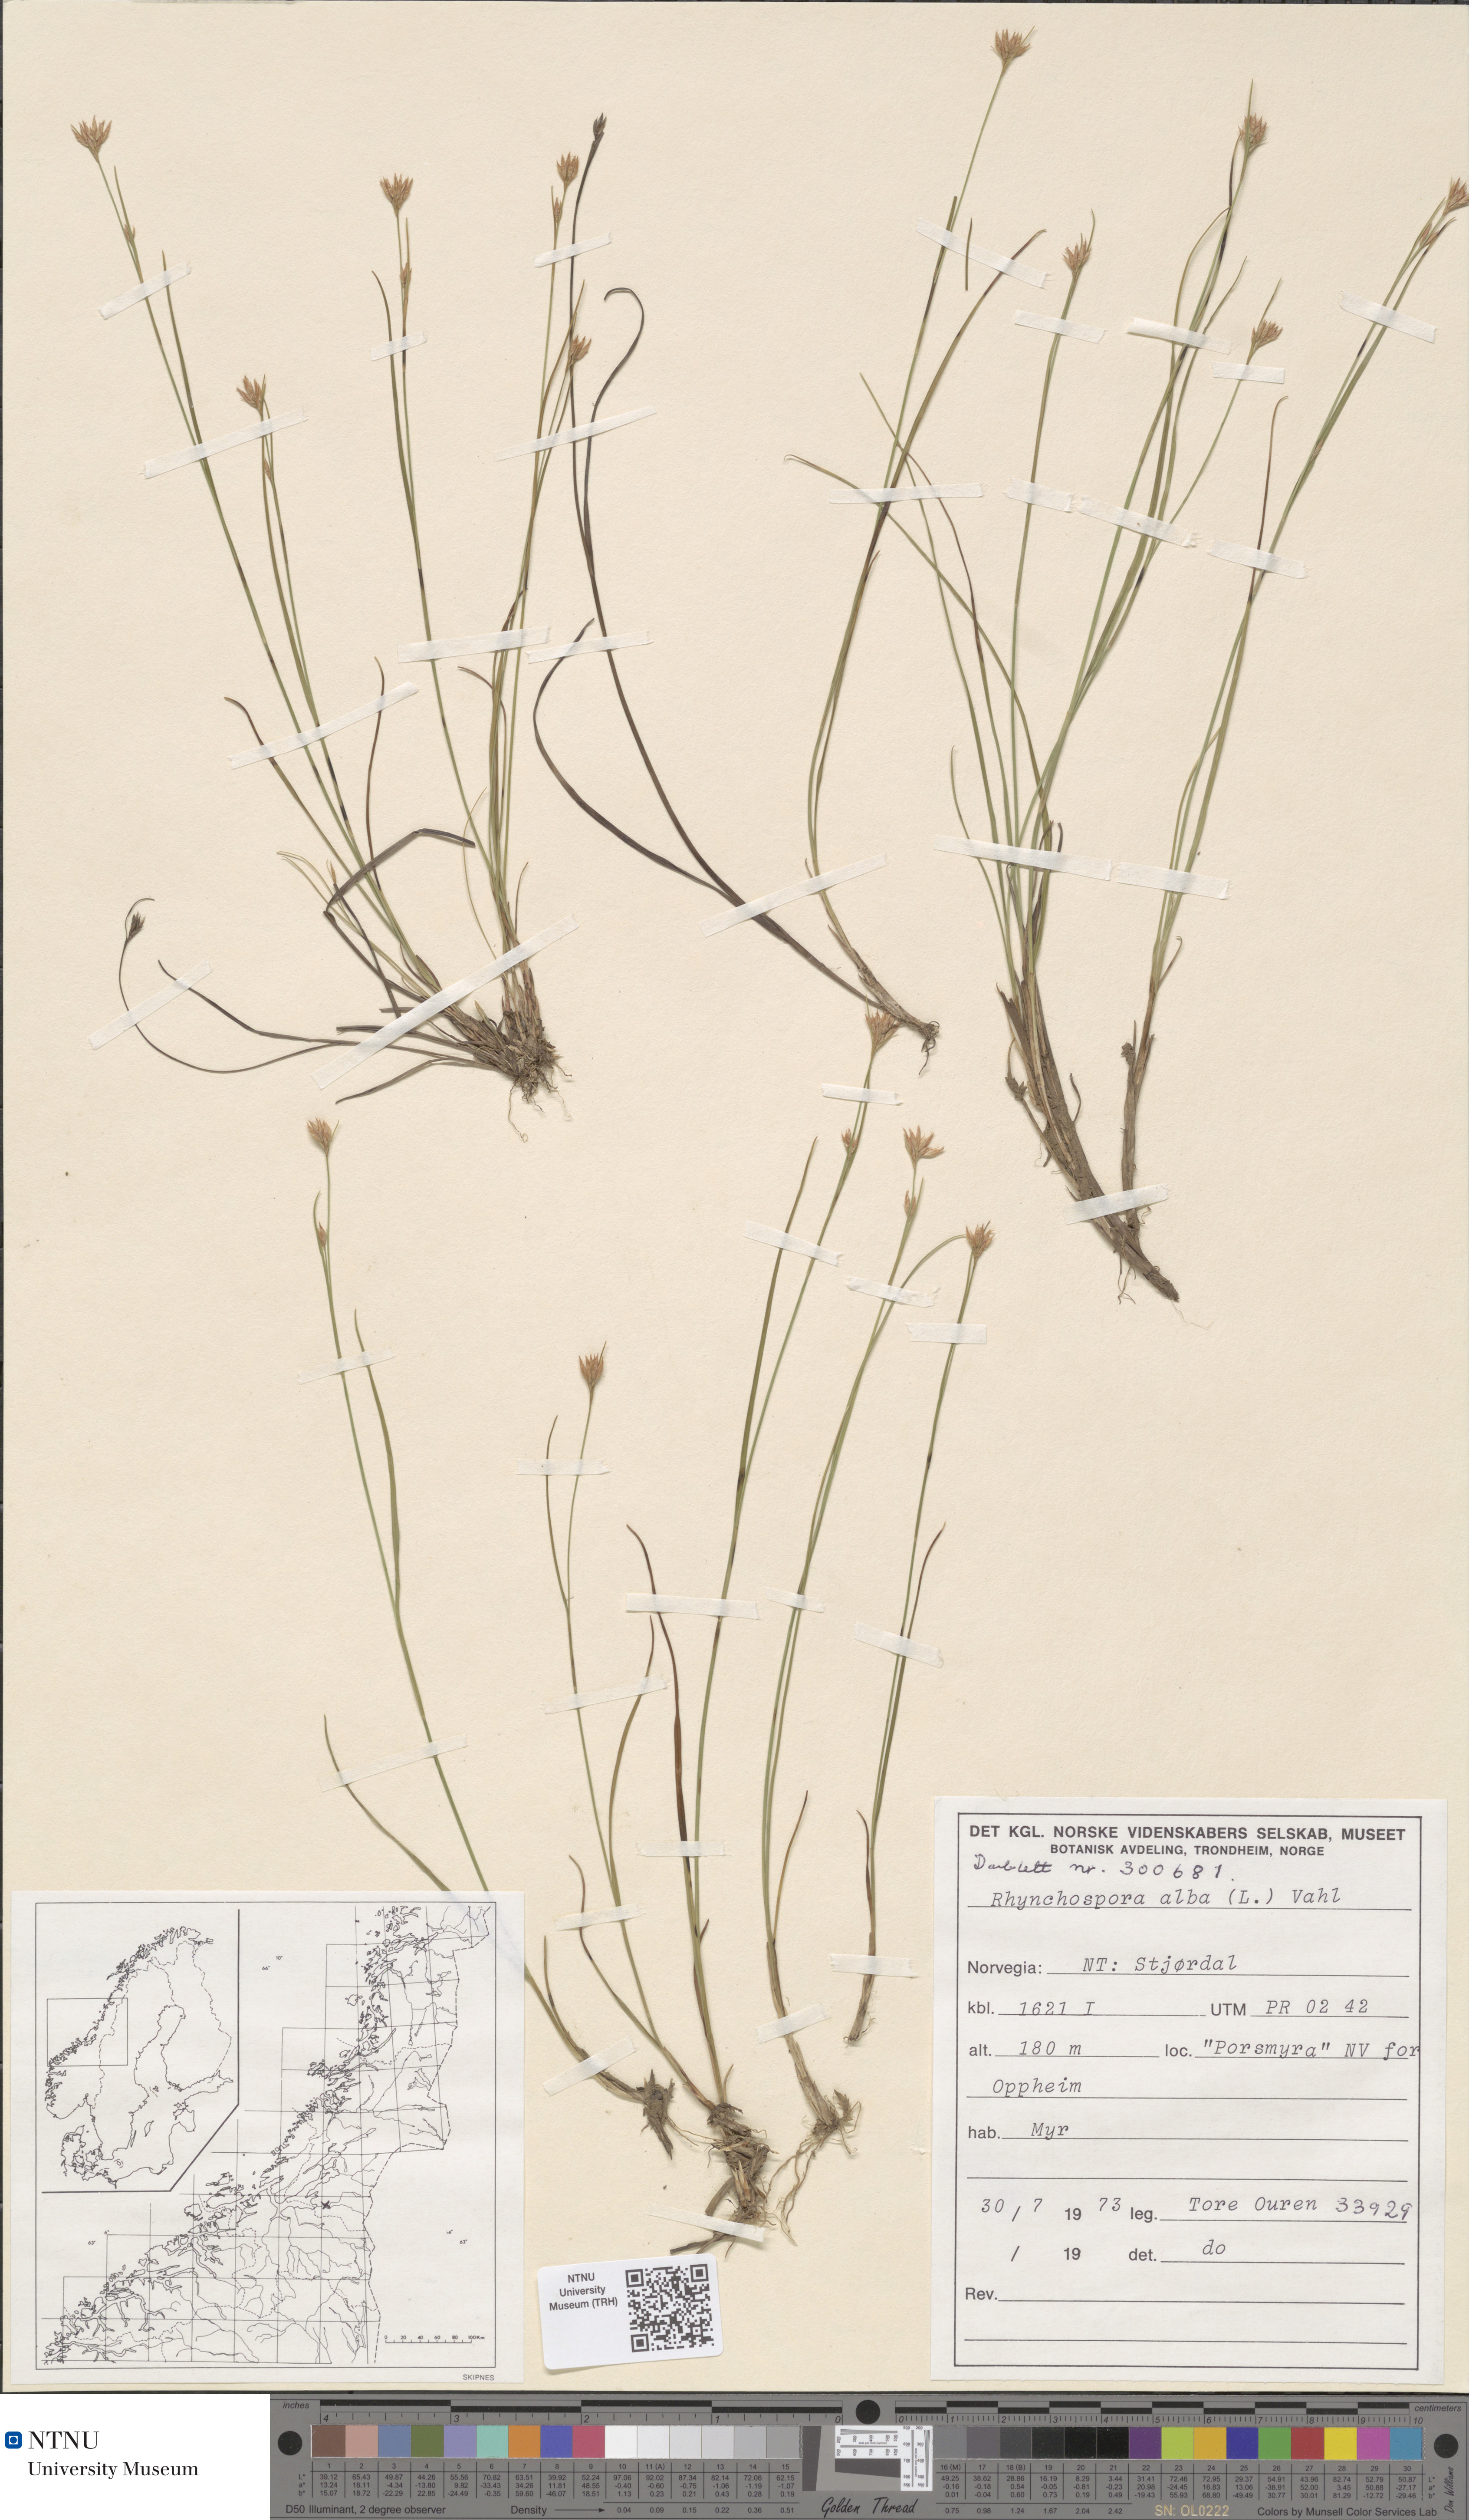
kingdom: Plantae
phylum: Tracheophyta
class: Liliopsida
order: Poales
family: Cyperaceae
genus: Rhynchospora
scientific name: Rhynchospora alba
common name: White beak-sedge
